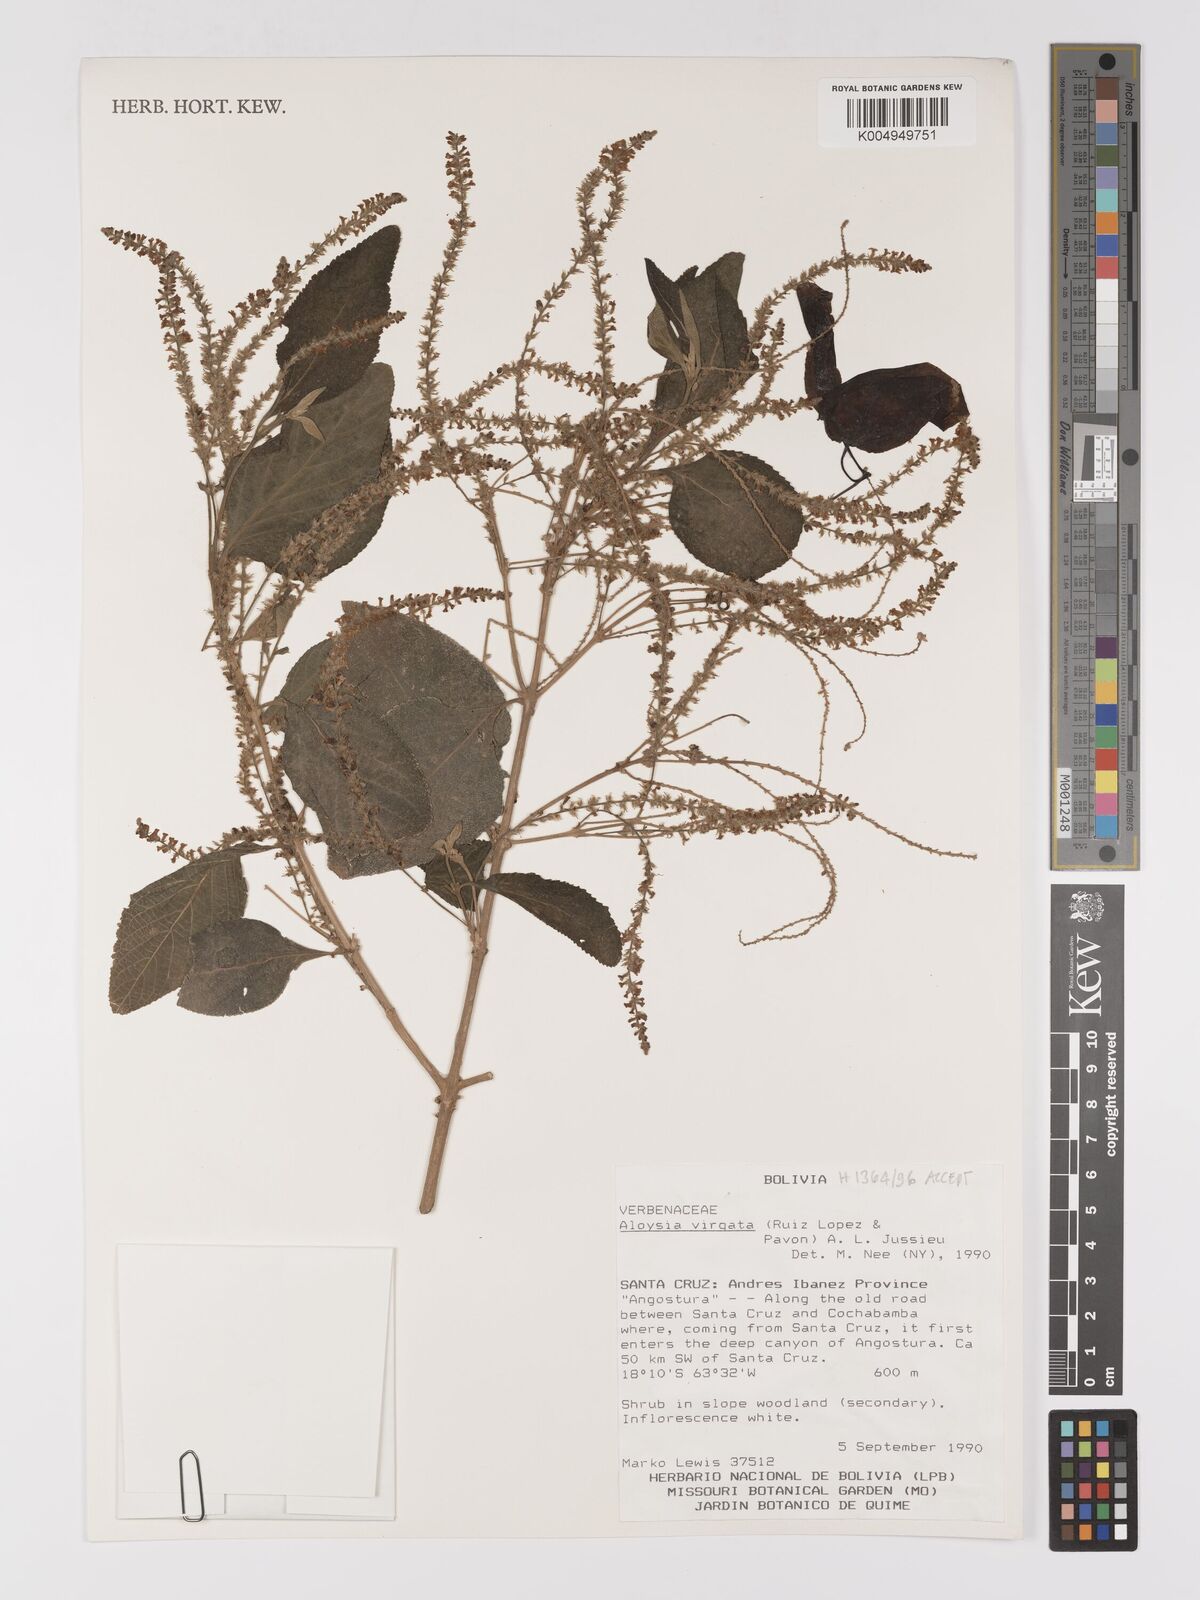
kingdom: Plantae
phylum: Tracheophyta
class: Magnoliopsida
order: Lamiales
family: Verbenaceae
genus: Aloysia
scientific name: Aloysia virgata
